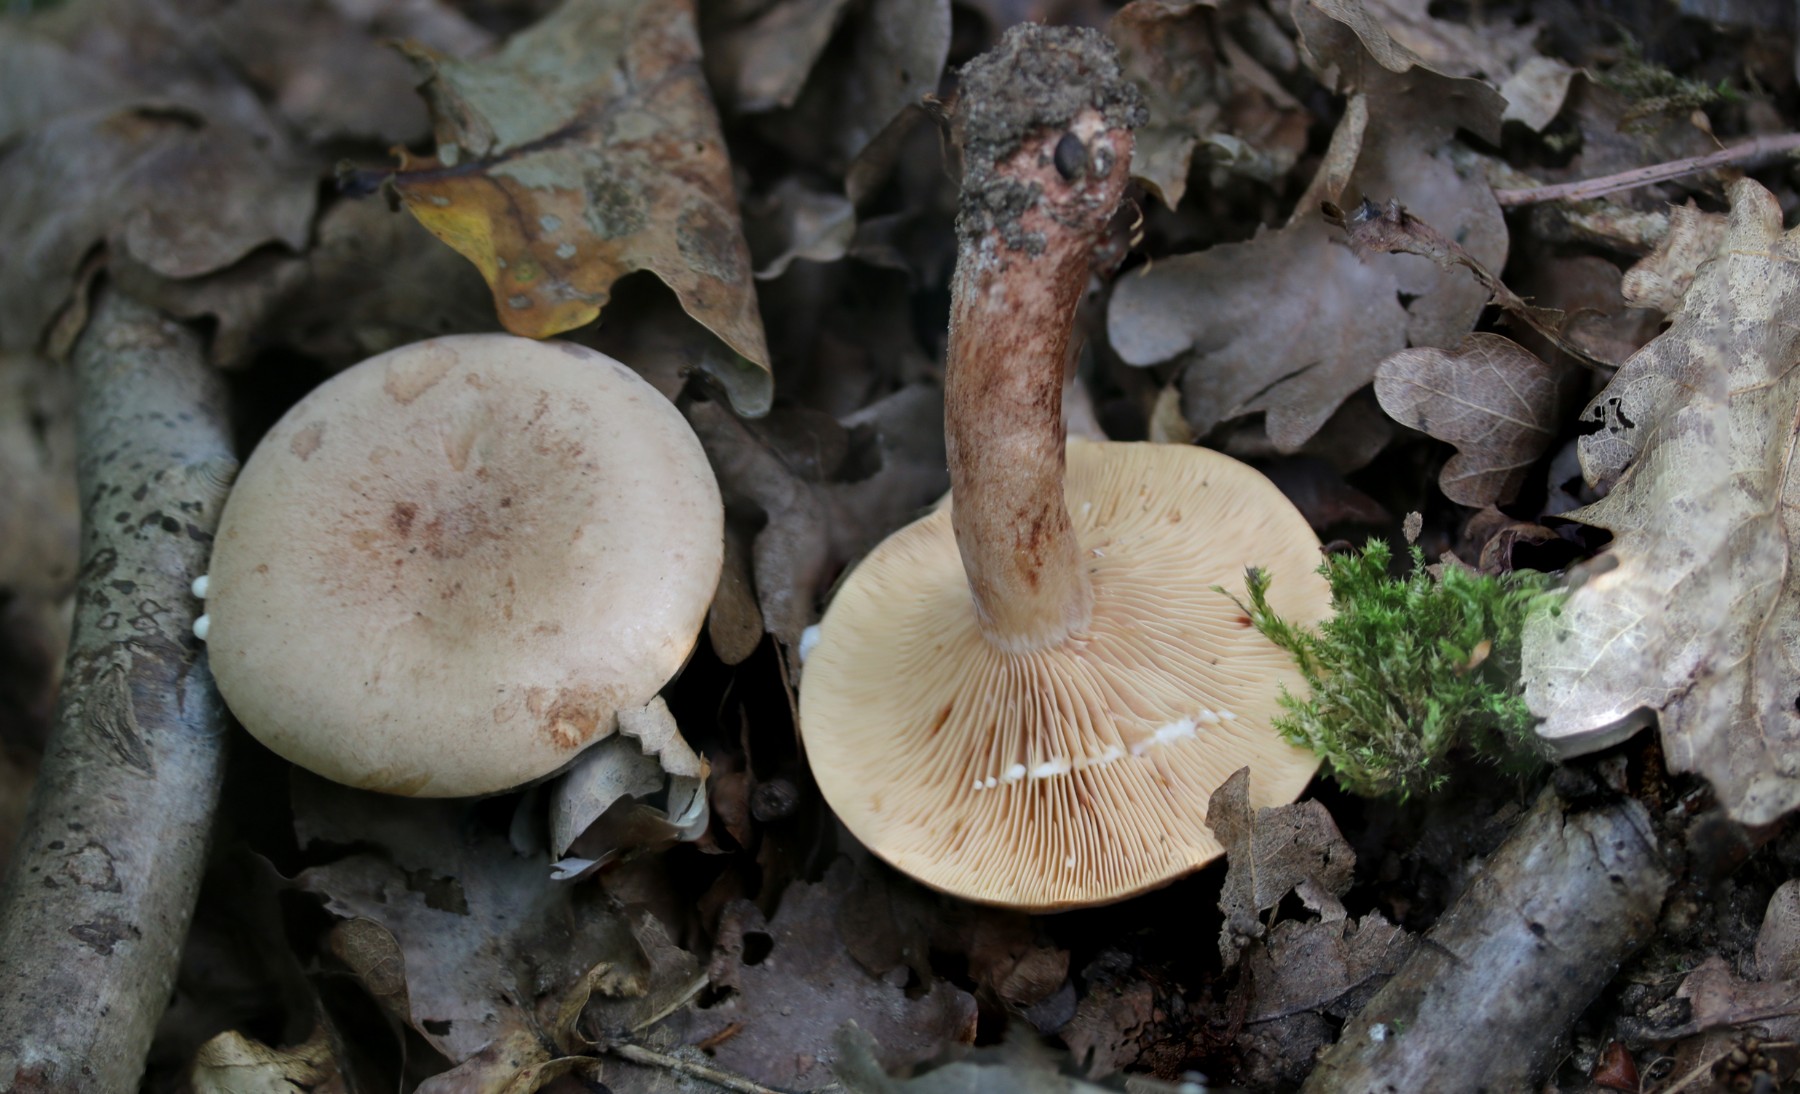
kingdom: Fungi
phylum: Basidiomycota
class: Agaricomycetes
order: Russulales
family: Russulaceae
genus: Lactarius
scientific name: Lactarius quietus
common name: ege-mælkehat
